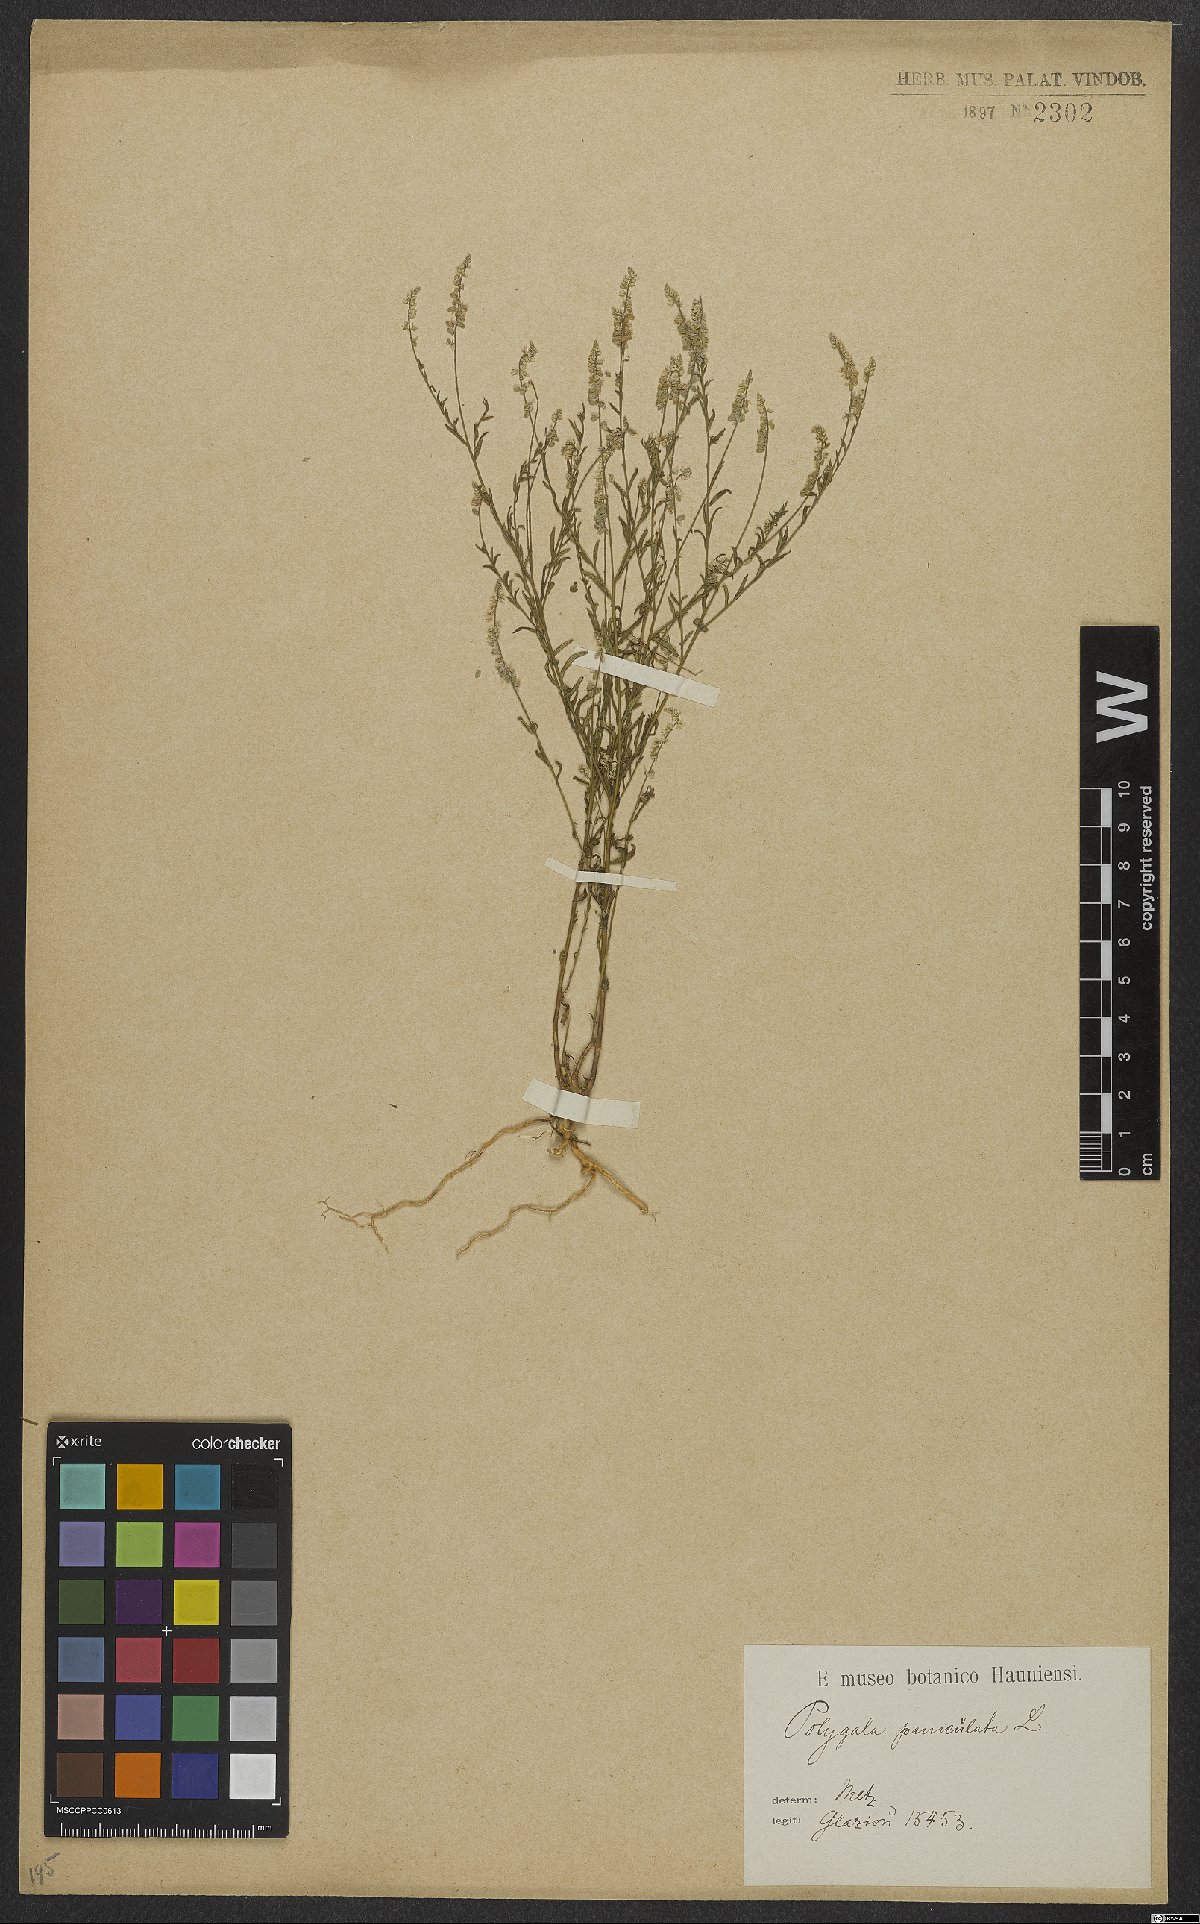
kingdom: Plantae
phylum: Tracheophyta
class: Magnoliopsida
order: Fabales
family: Polygalaceae
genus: Polygala
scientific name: Polygala exilis
